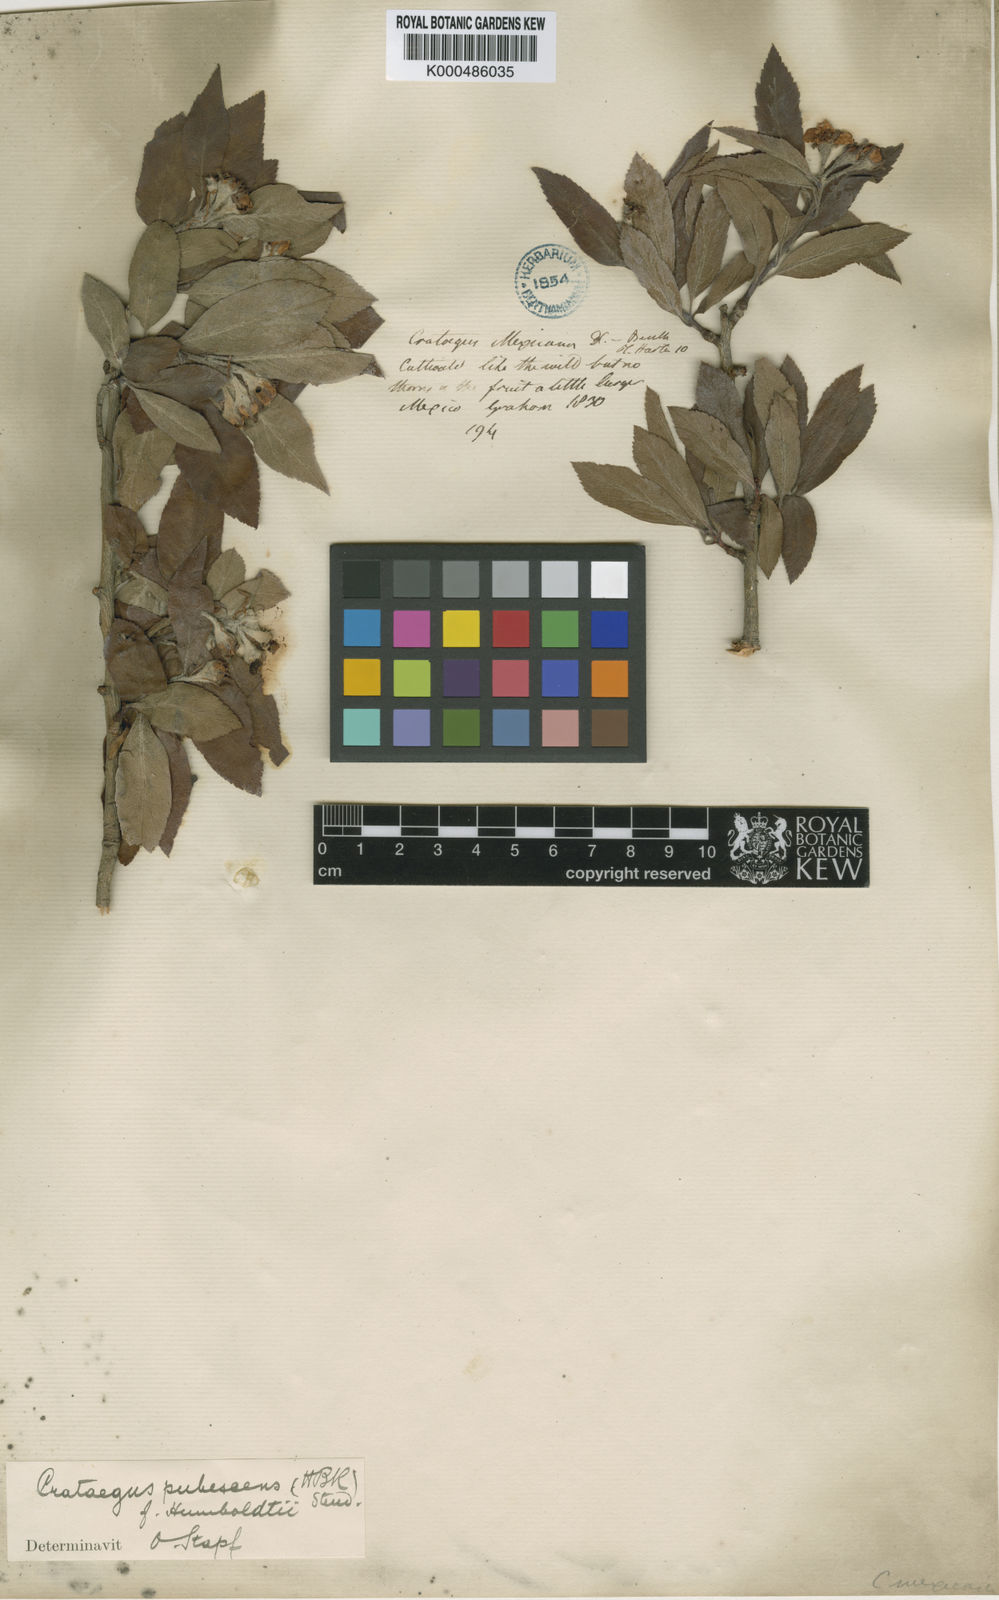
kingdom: Plantae
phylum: Tracheophyta
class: Magnoliopsida
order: Rosales
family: Rosaceae
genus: Crataegus
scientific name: Crataegus gracilior
